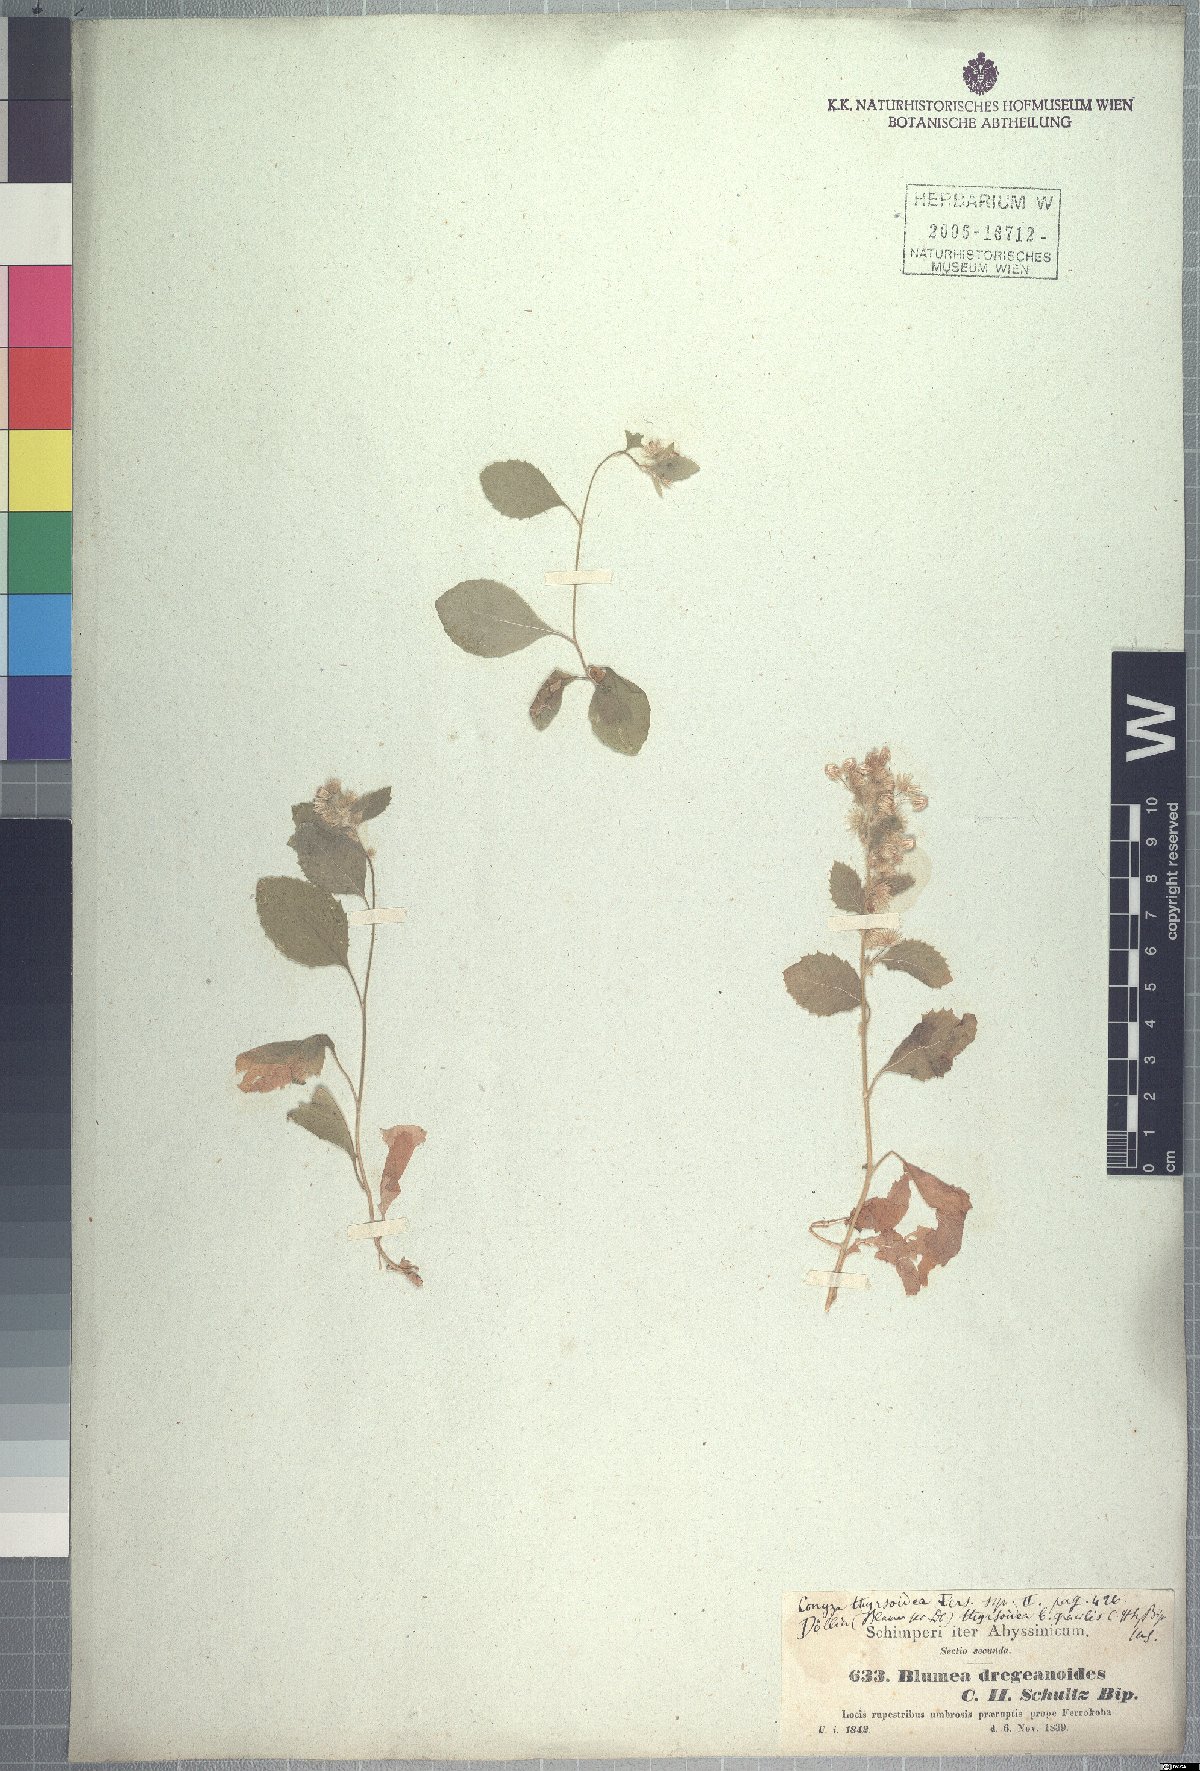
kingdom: Plantae
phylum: Tracheophyta
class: Magnoliopsida
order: Asterales
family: Asteraceae
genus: Blumea
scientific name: Blumea lacera
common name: Malay blumea
